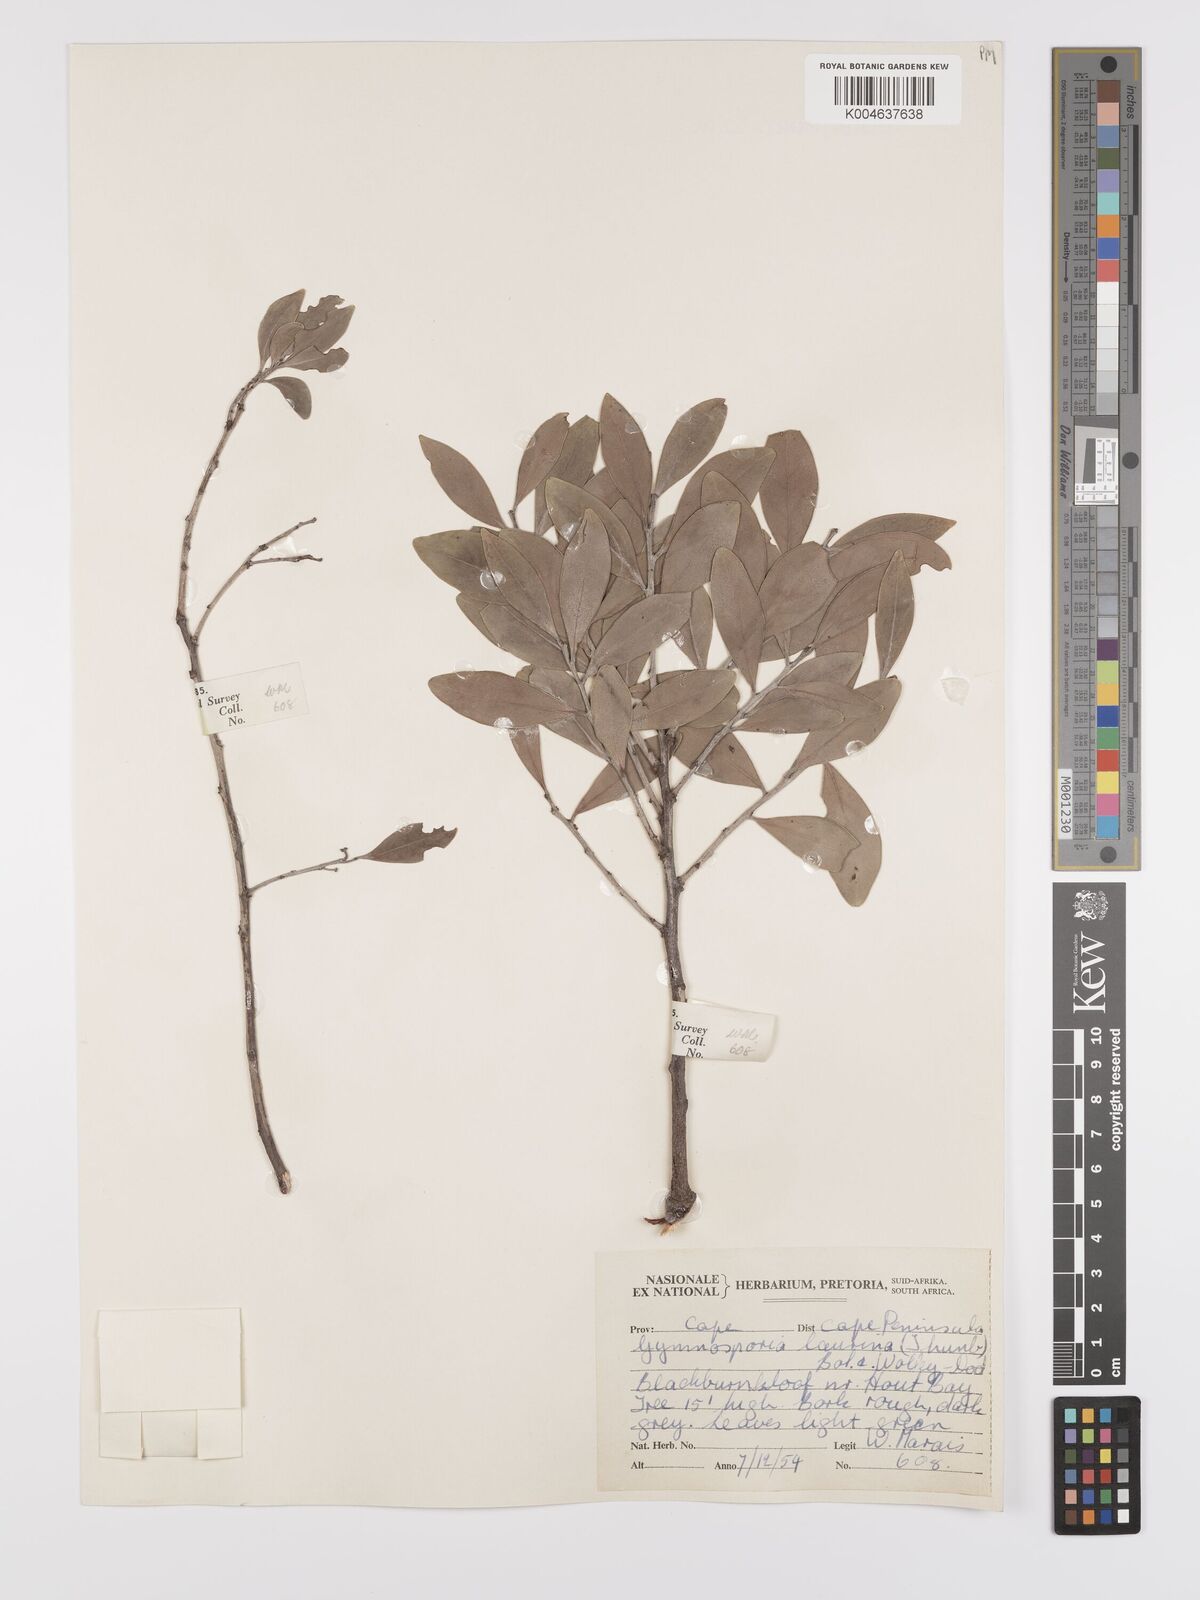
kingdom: Plantae
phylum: Tracheophyta
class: Magnoliopsida
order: Celastrales
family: Celastraceae
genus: Gymnosporia
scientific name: Gymnosporia laurina
